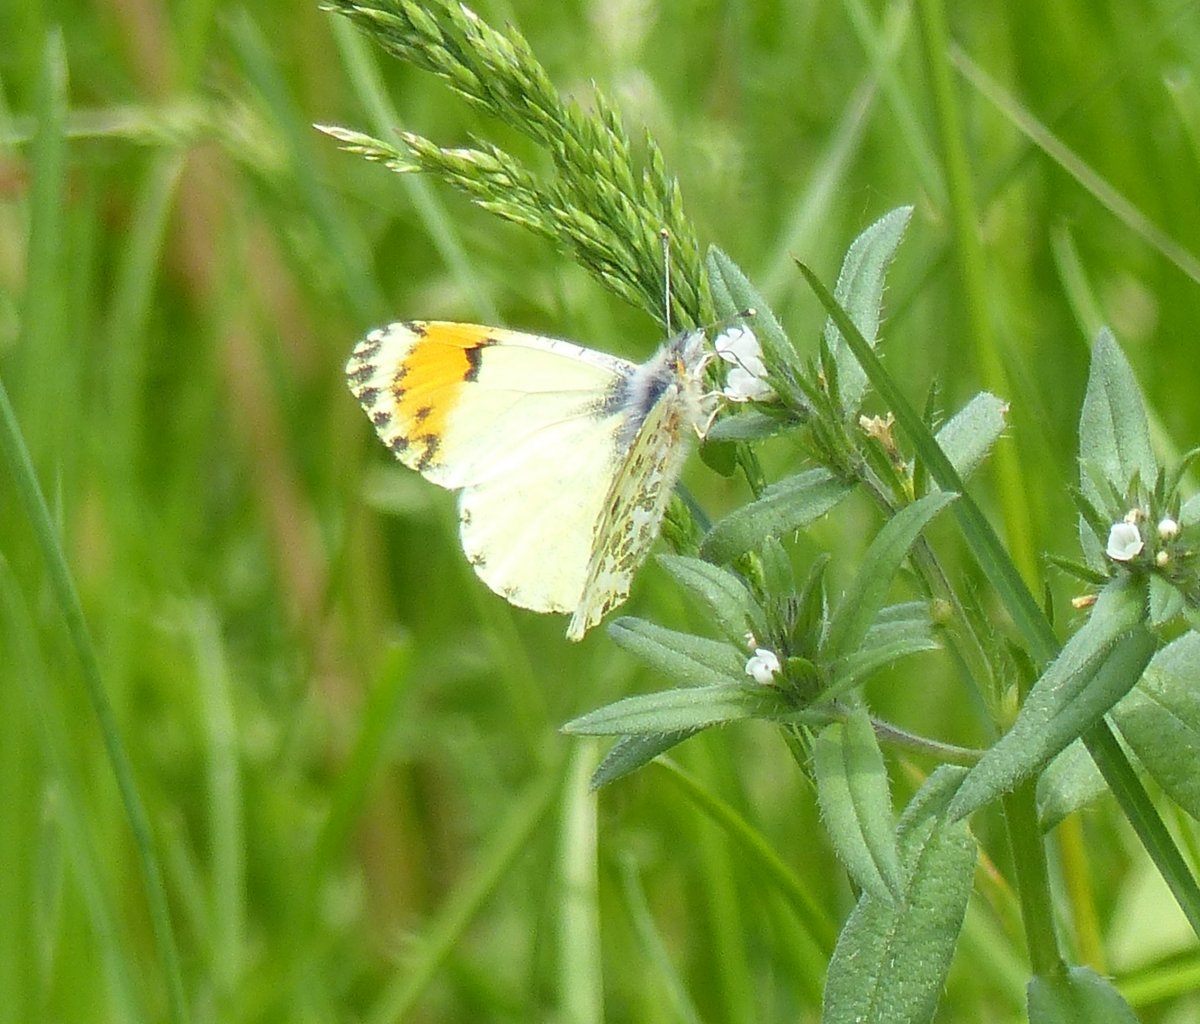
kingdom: Animalia
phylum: Arthropoda
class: Insecta
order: Lepidoptera
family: Pieridae
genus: Anthocharis
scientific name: Anthocharis sara
